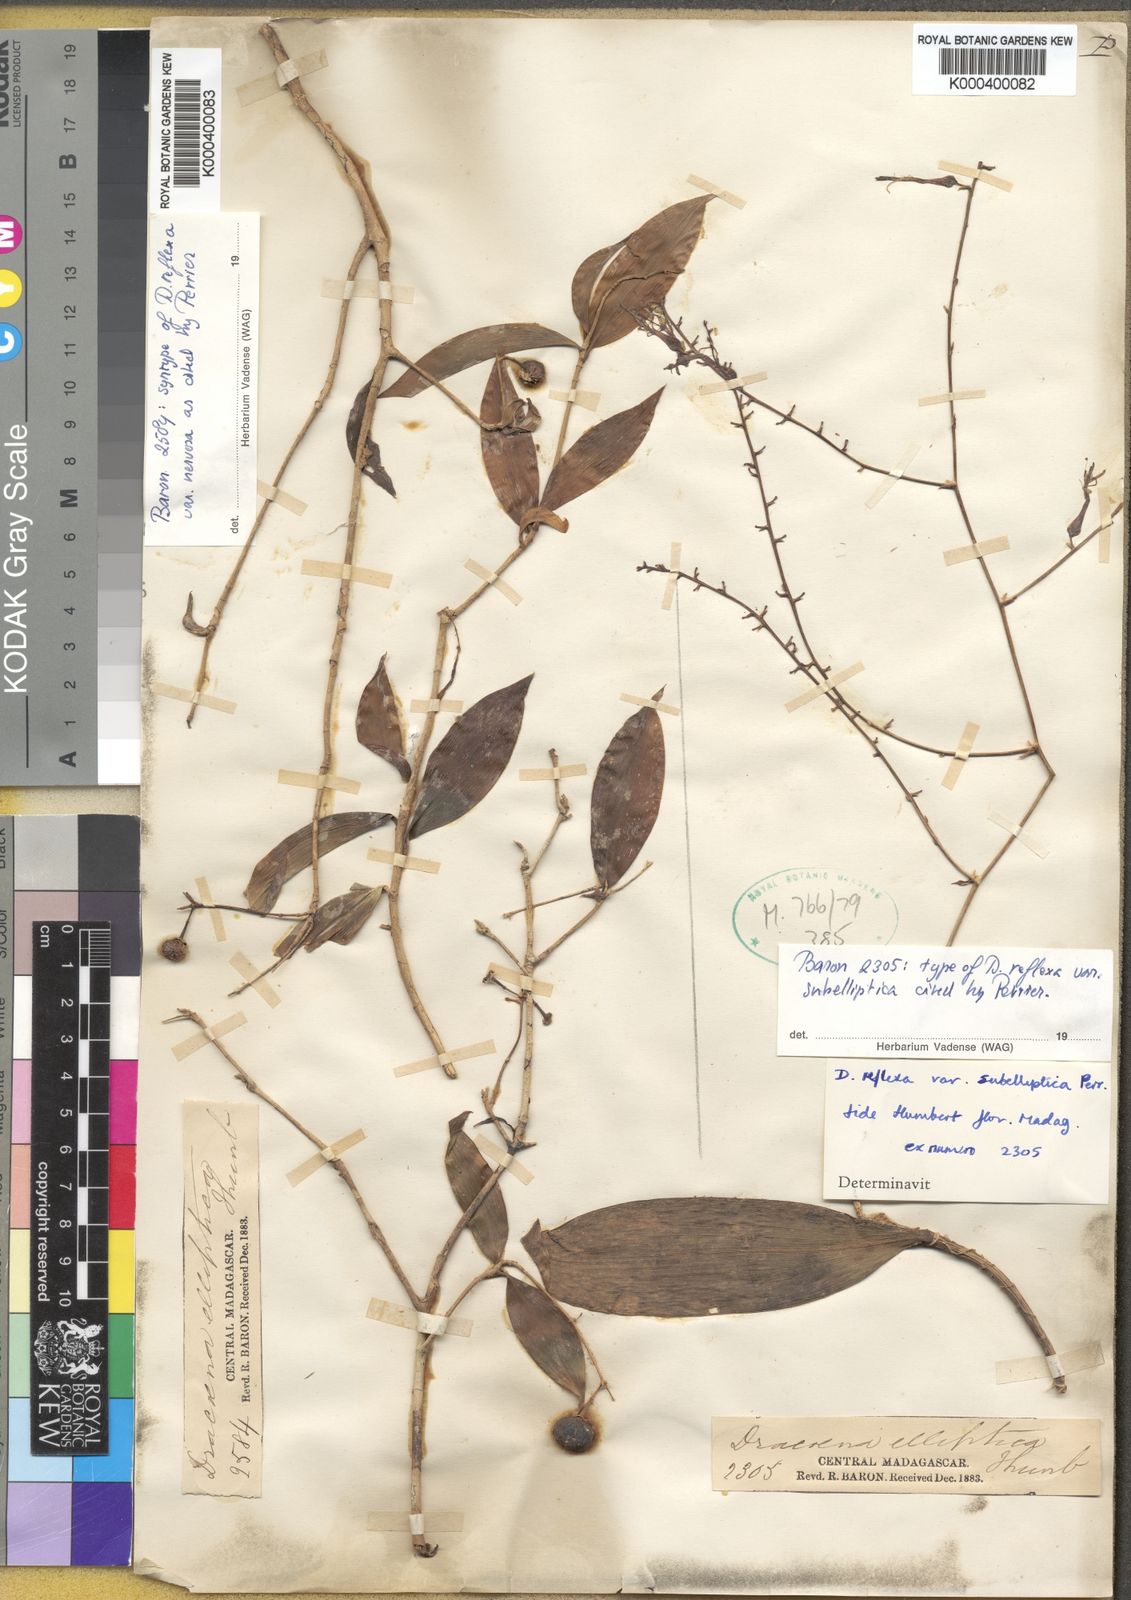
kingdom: Plantae
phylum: Tracheophyta
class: Liliopsida
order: Asparagales
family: Asparagaceae
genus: Dracaena
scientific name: Dracaena reflexa
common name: Song-of-india
